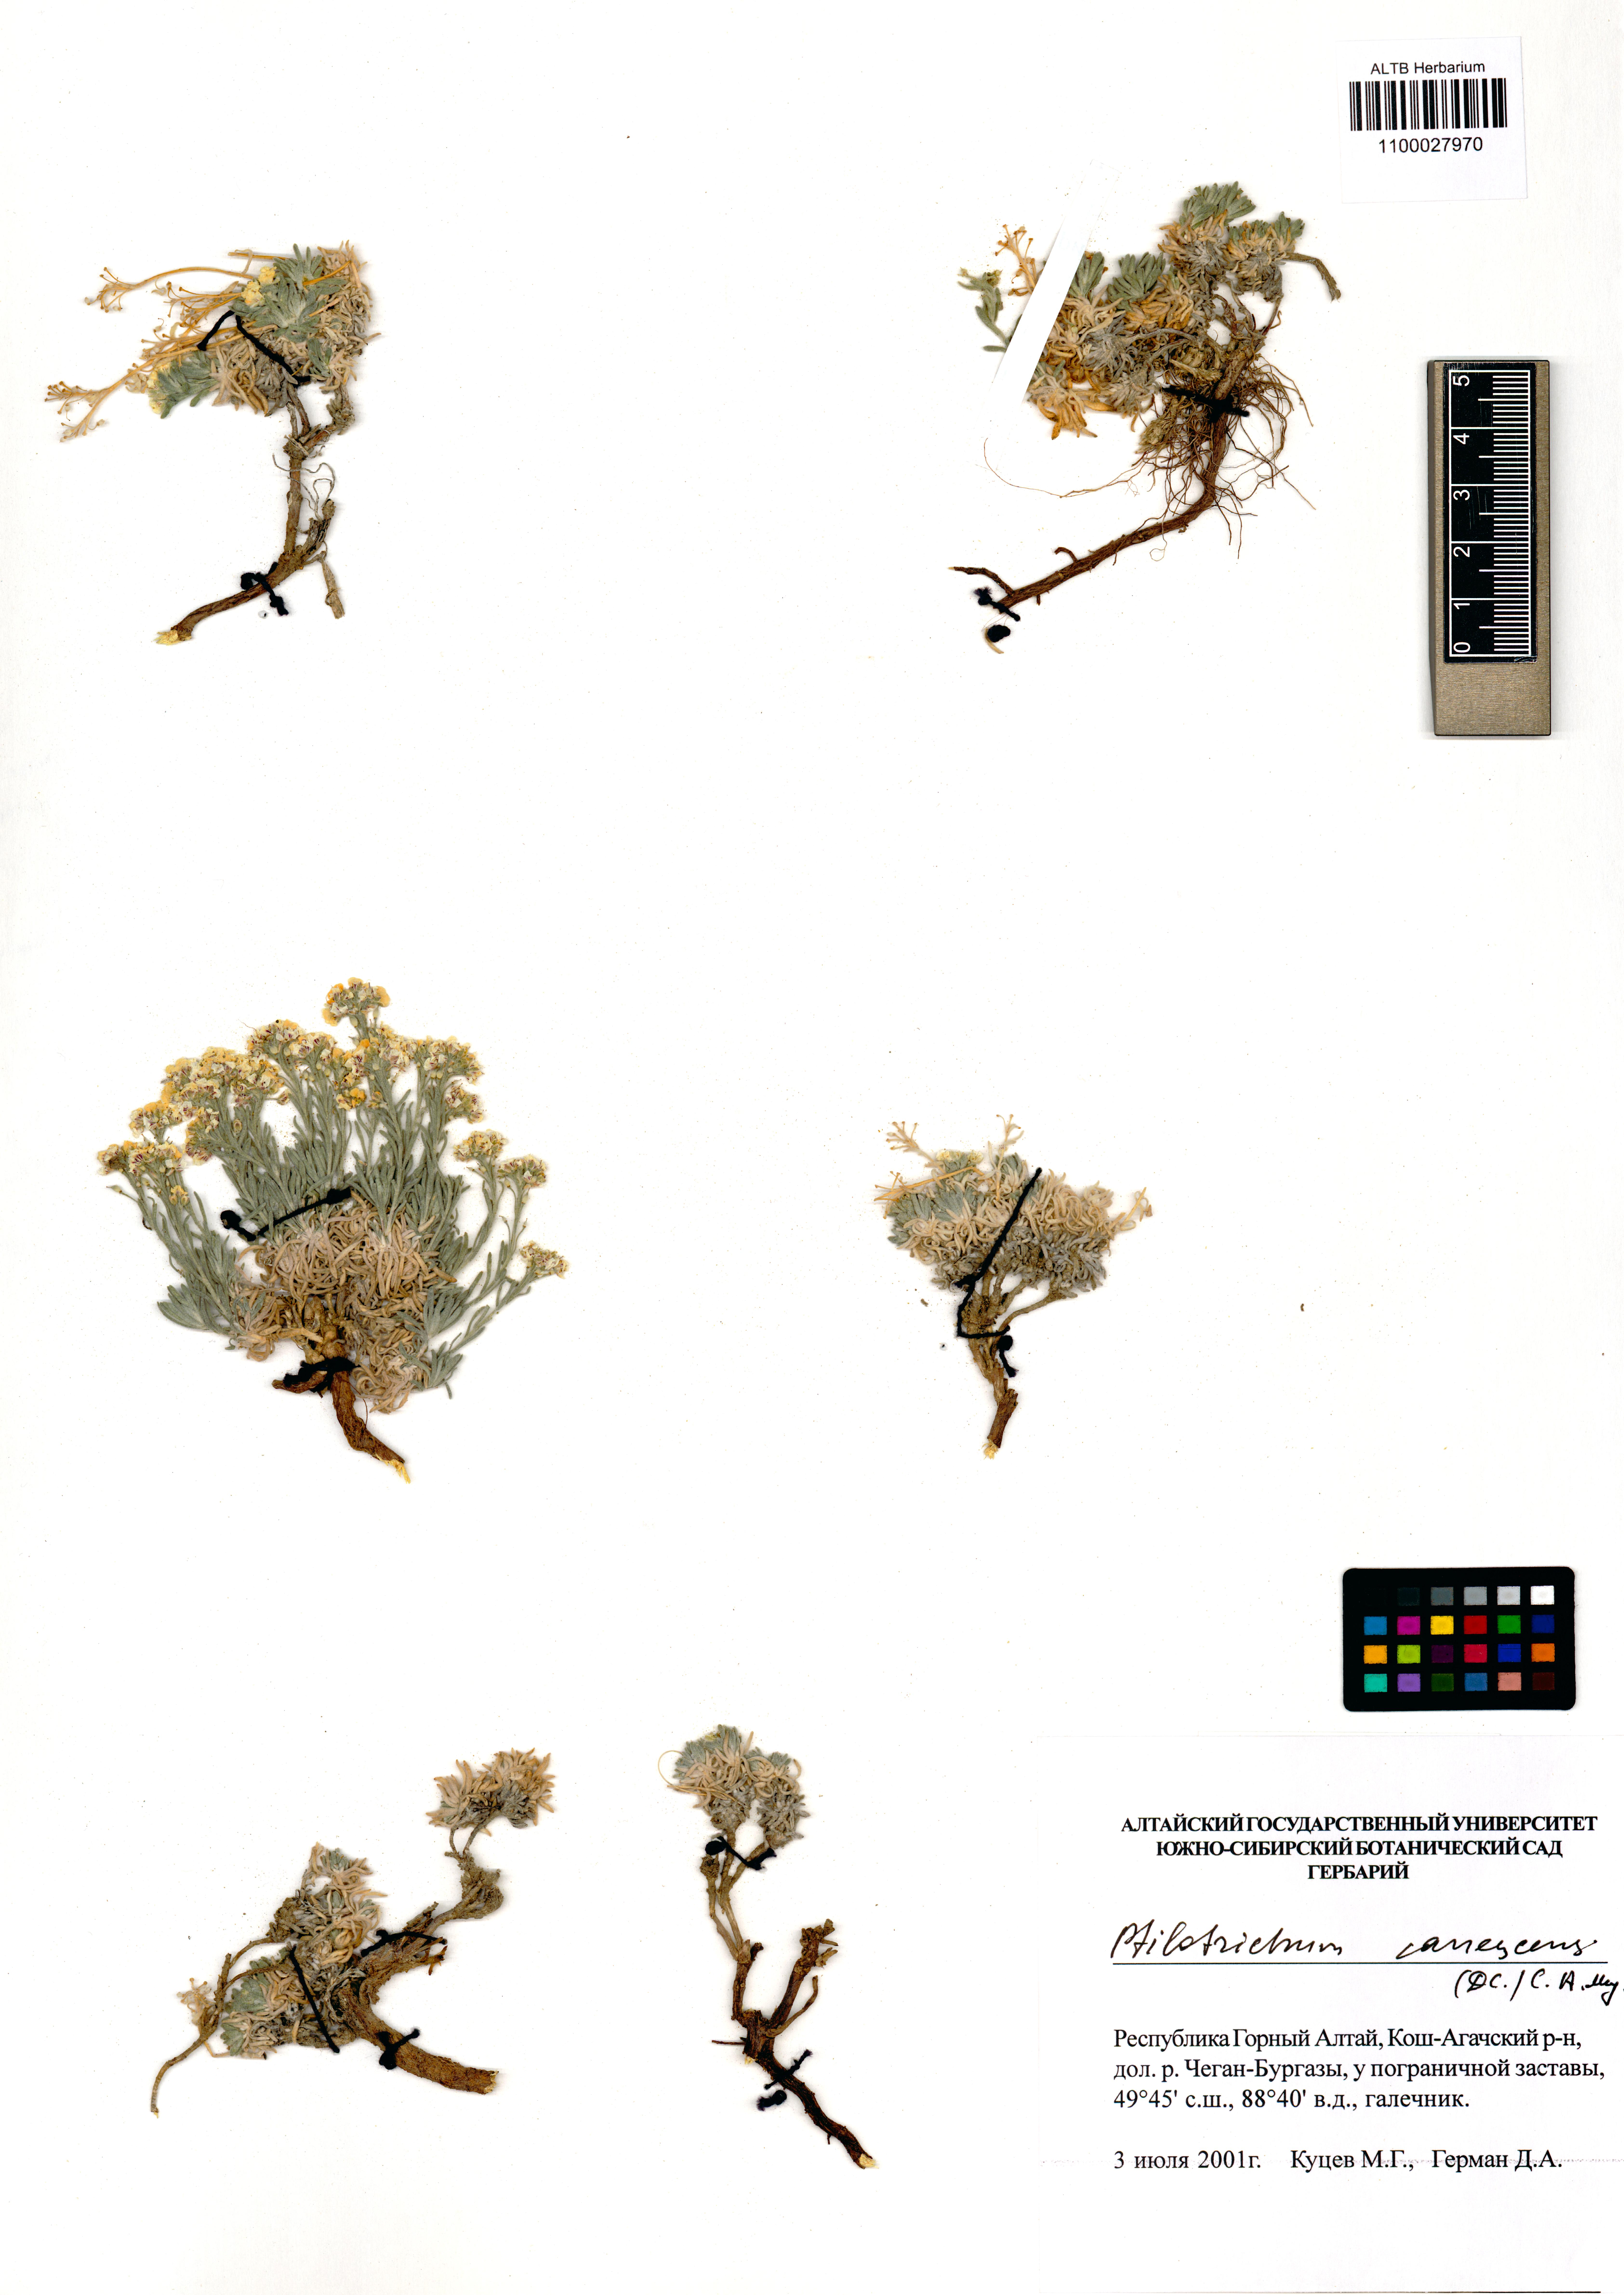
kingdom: Plantae
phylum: Tracheophyta
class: Magnoliopsida
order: Brassicales
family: Brassicaceae
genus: Stevenia
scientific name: Stevenia canescens
